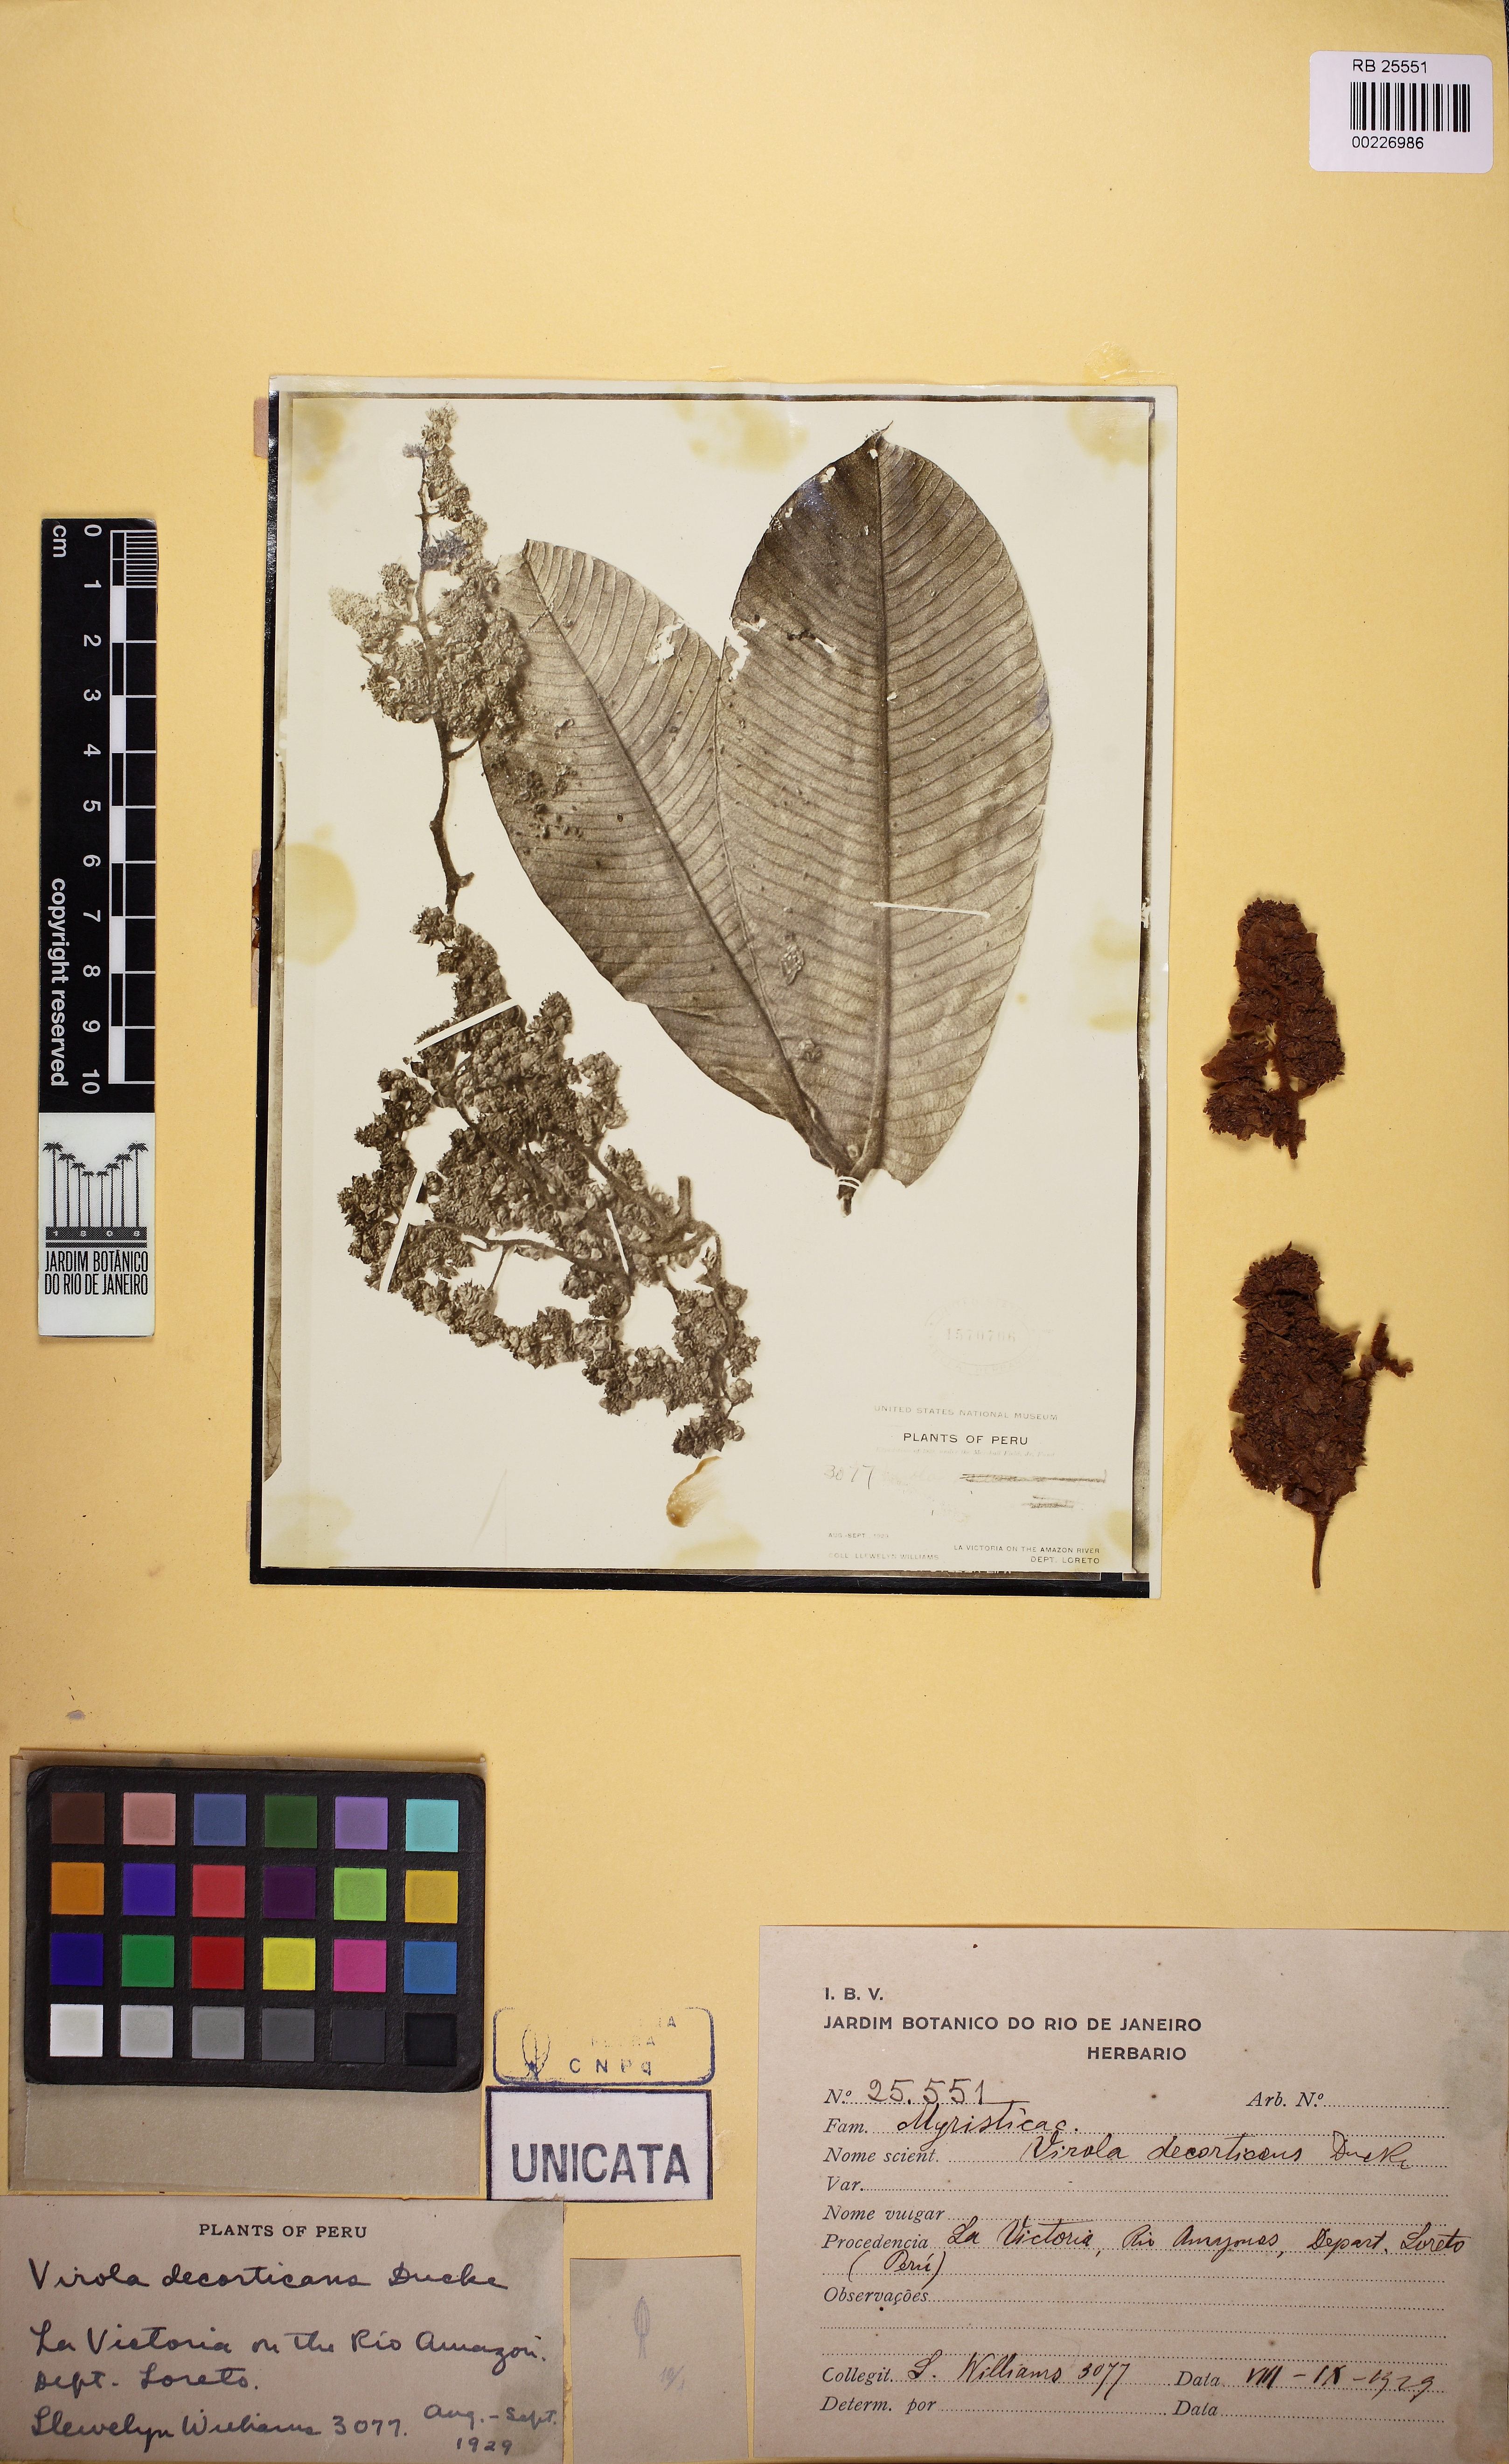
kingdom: Plantae
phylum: Tracheophyta
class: Magnoliopsida
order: Magnoliales
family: Myristicaceae
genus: Virola
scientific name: Virola decorticans
